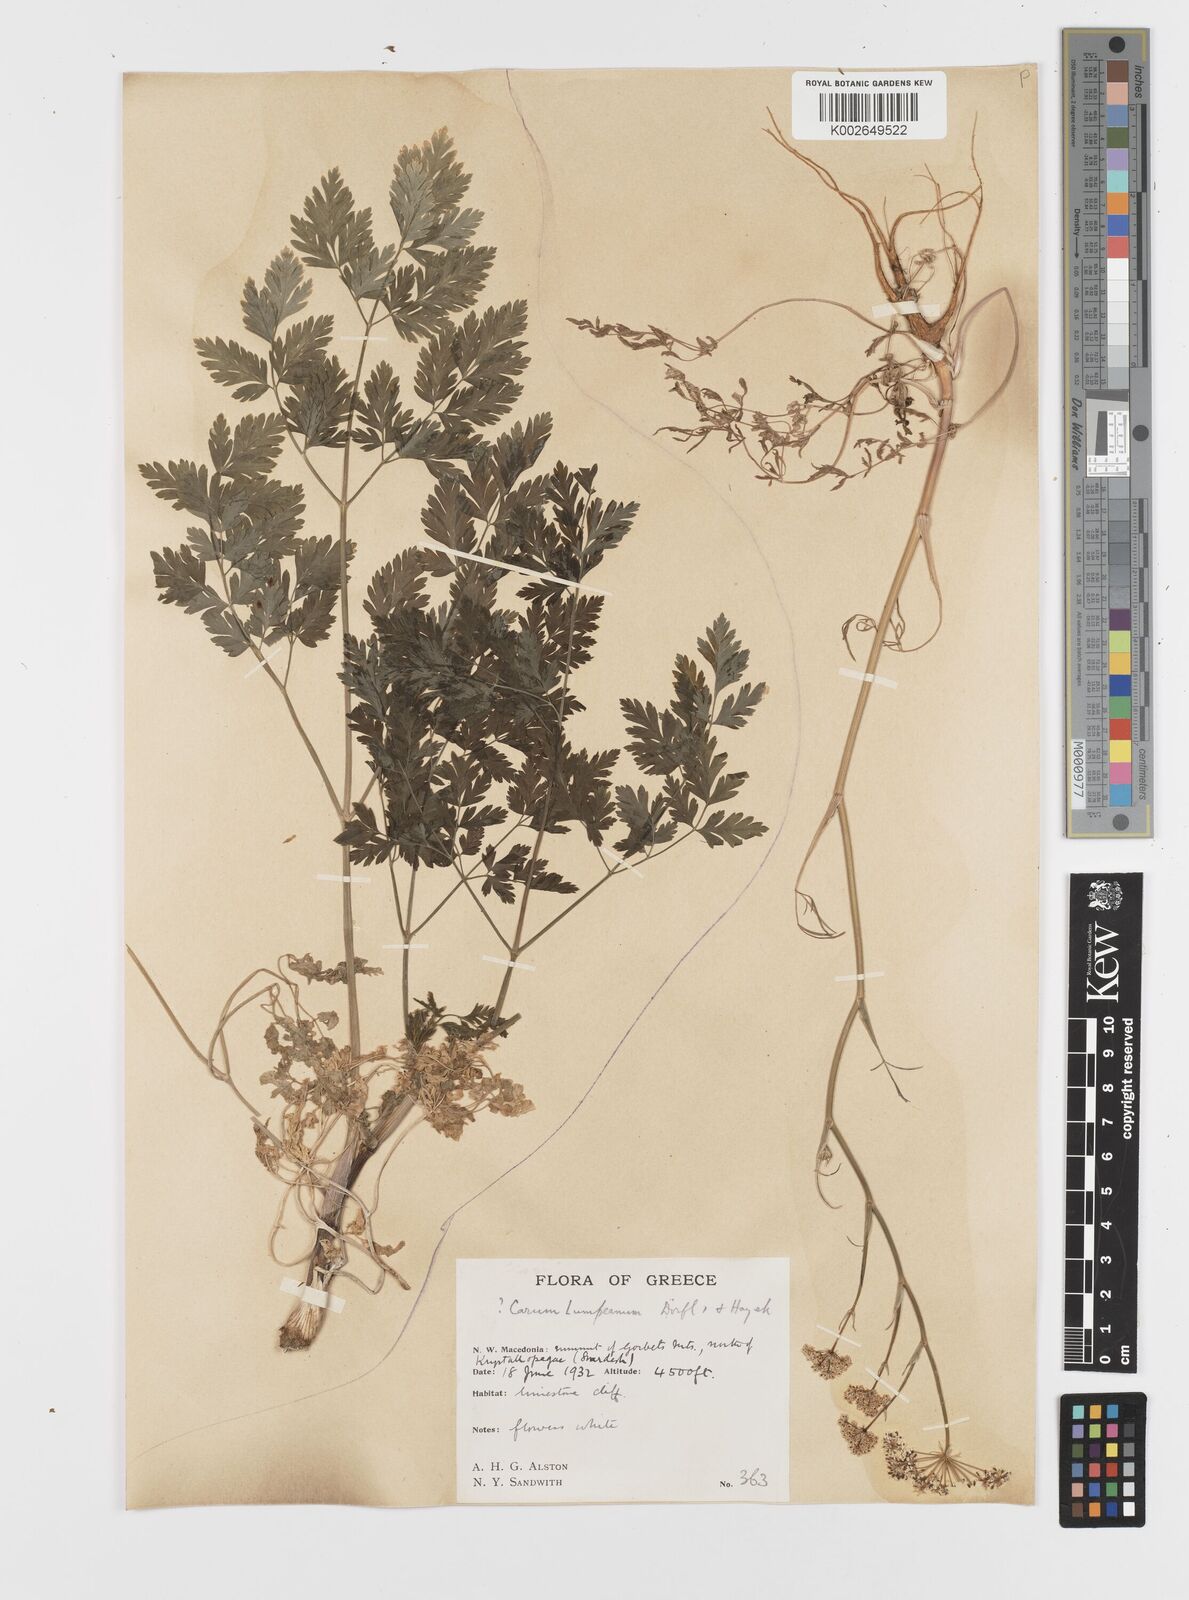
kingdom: Plantae
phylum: Tracheophyta
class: Magnoliopsida
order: Apiales
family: Apiaceae
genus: Hellenocarum
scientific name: Hellenocarum multiflorum
